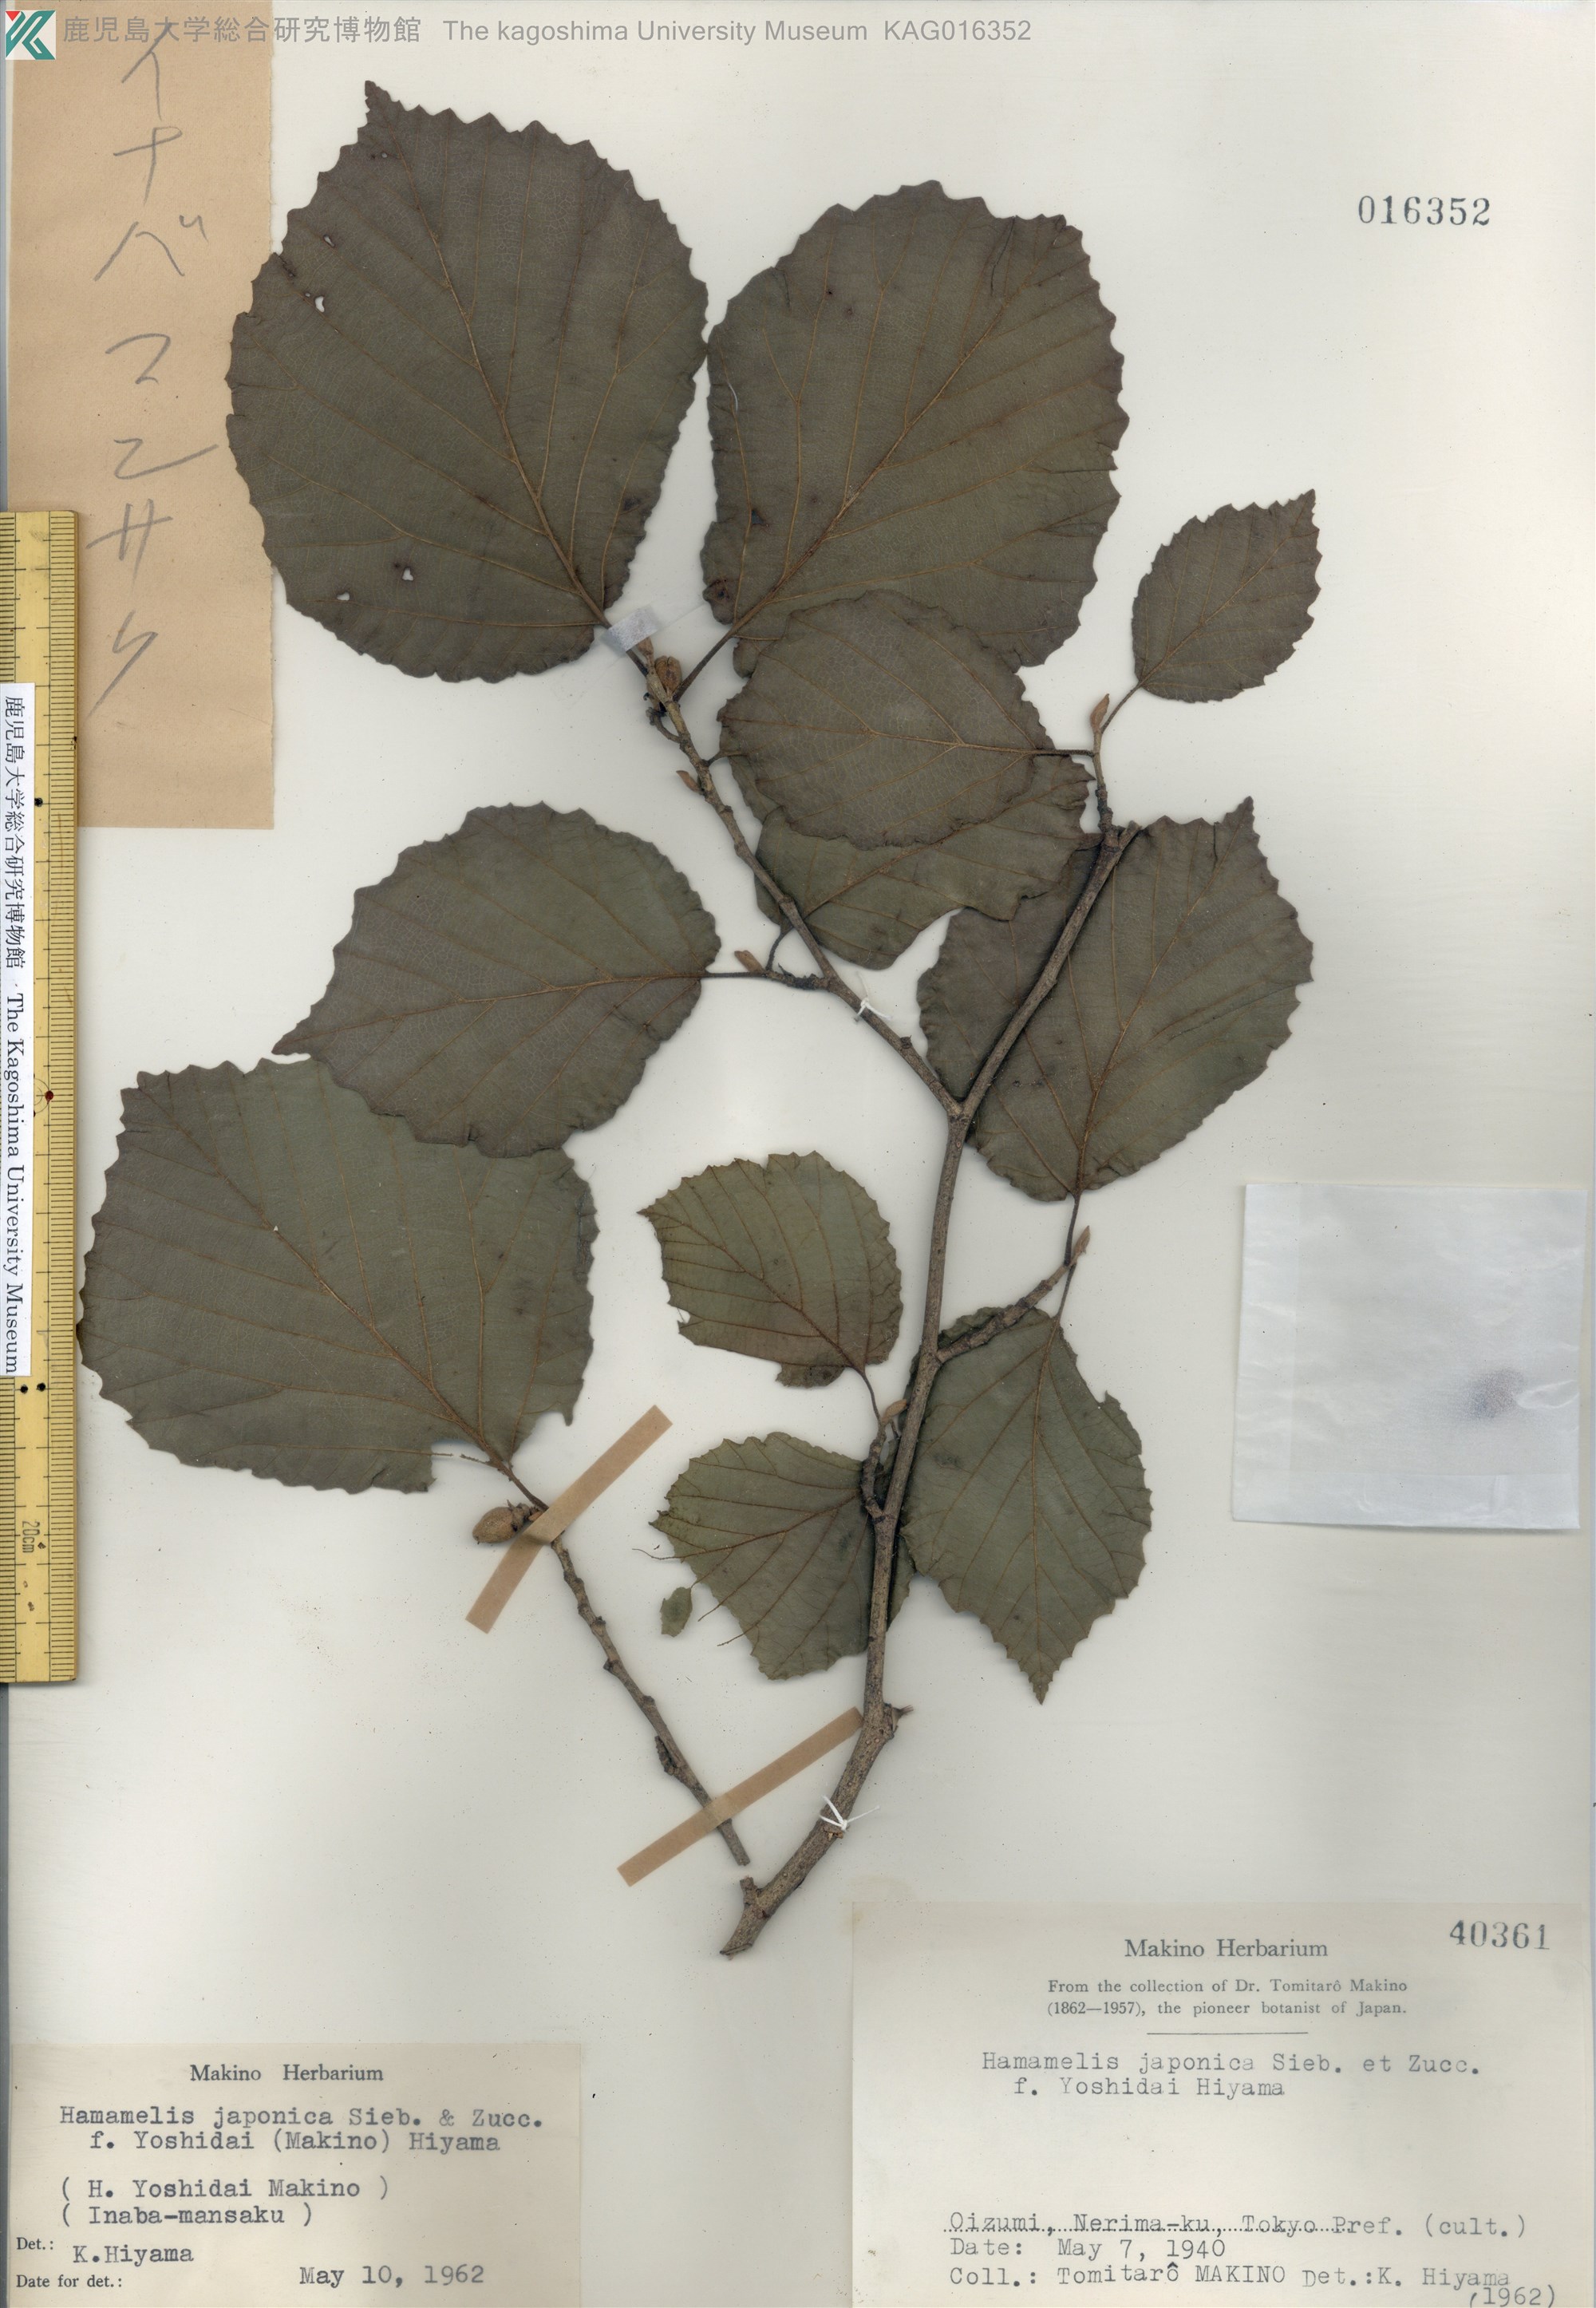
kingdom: Plantae
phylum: Tracheophyta
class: Magnoliopsida
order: Saxifragales
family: Hamamelidaceae
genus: Hamamelis
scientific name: Hamamelis
